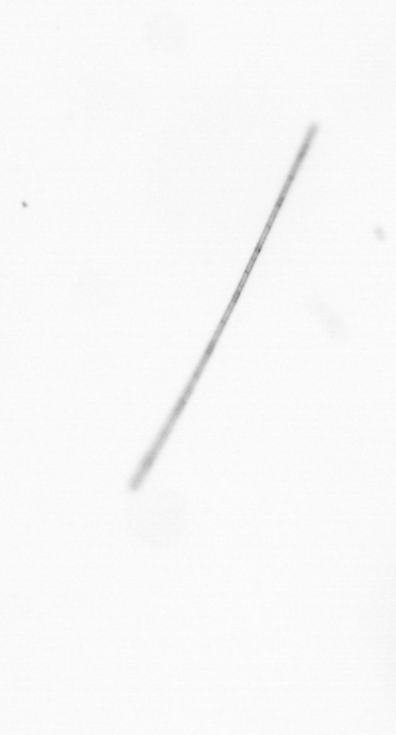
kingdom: Chromista
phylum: Ochrophyta
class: Bacillariophyceae
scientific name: Bacillariophyceae
